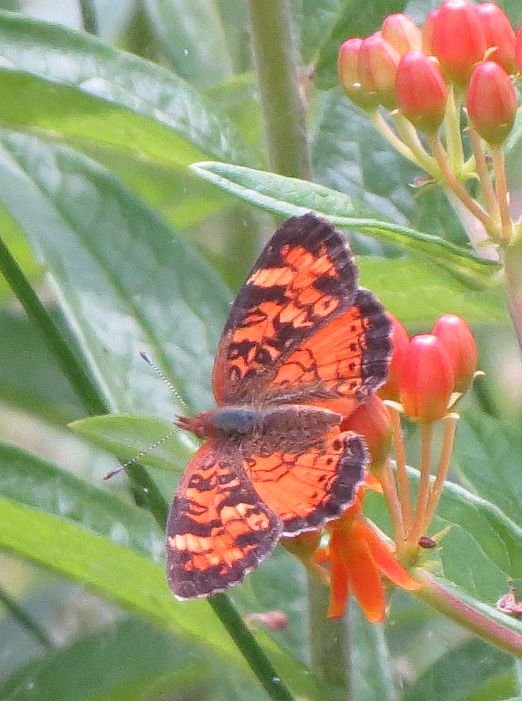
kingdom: Animalia
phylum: Arthropoda
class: Insecta
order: Lepidoptera
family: Nymphalidae
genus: Phyciodes
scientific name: Phyciodes tharos
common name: Northern Crescent
